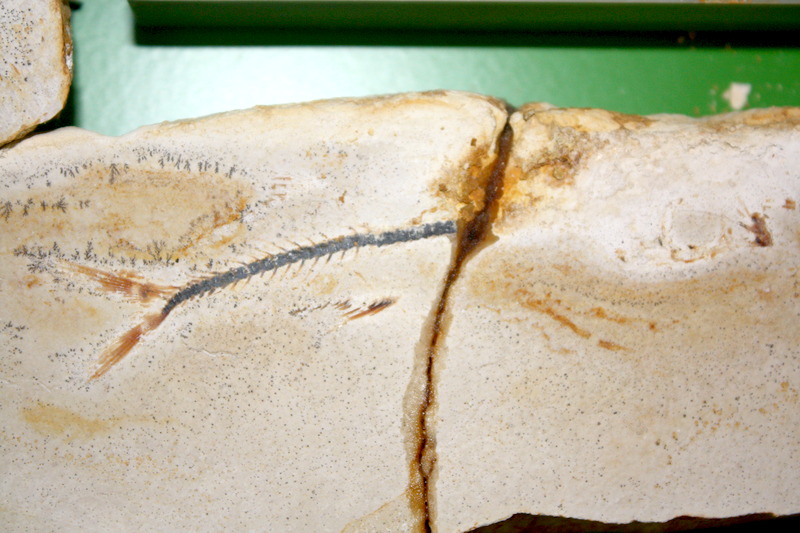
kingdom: Animalia
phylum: Chordata
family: Ascalaboidae
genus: Ebertichthys
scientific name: Ebertichthys ettlingensis
